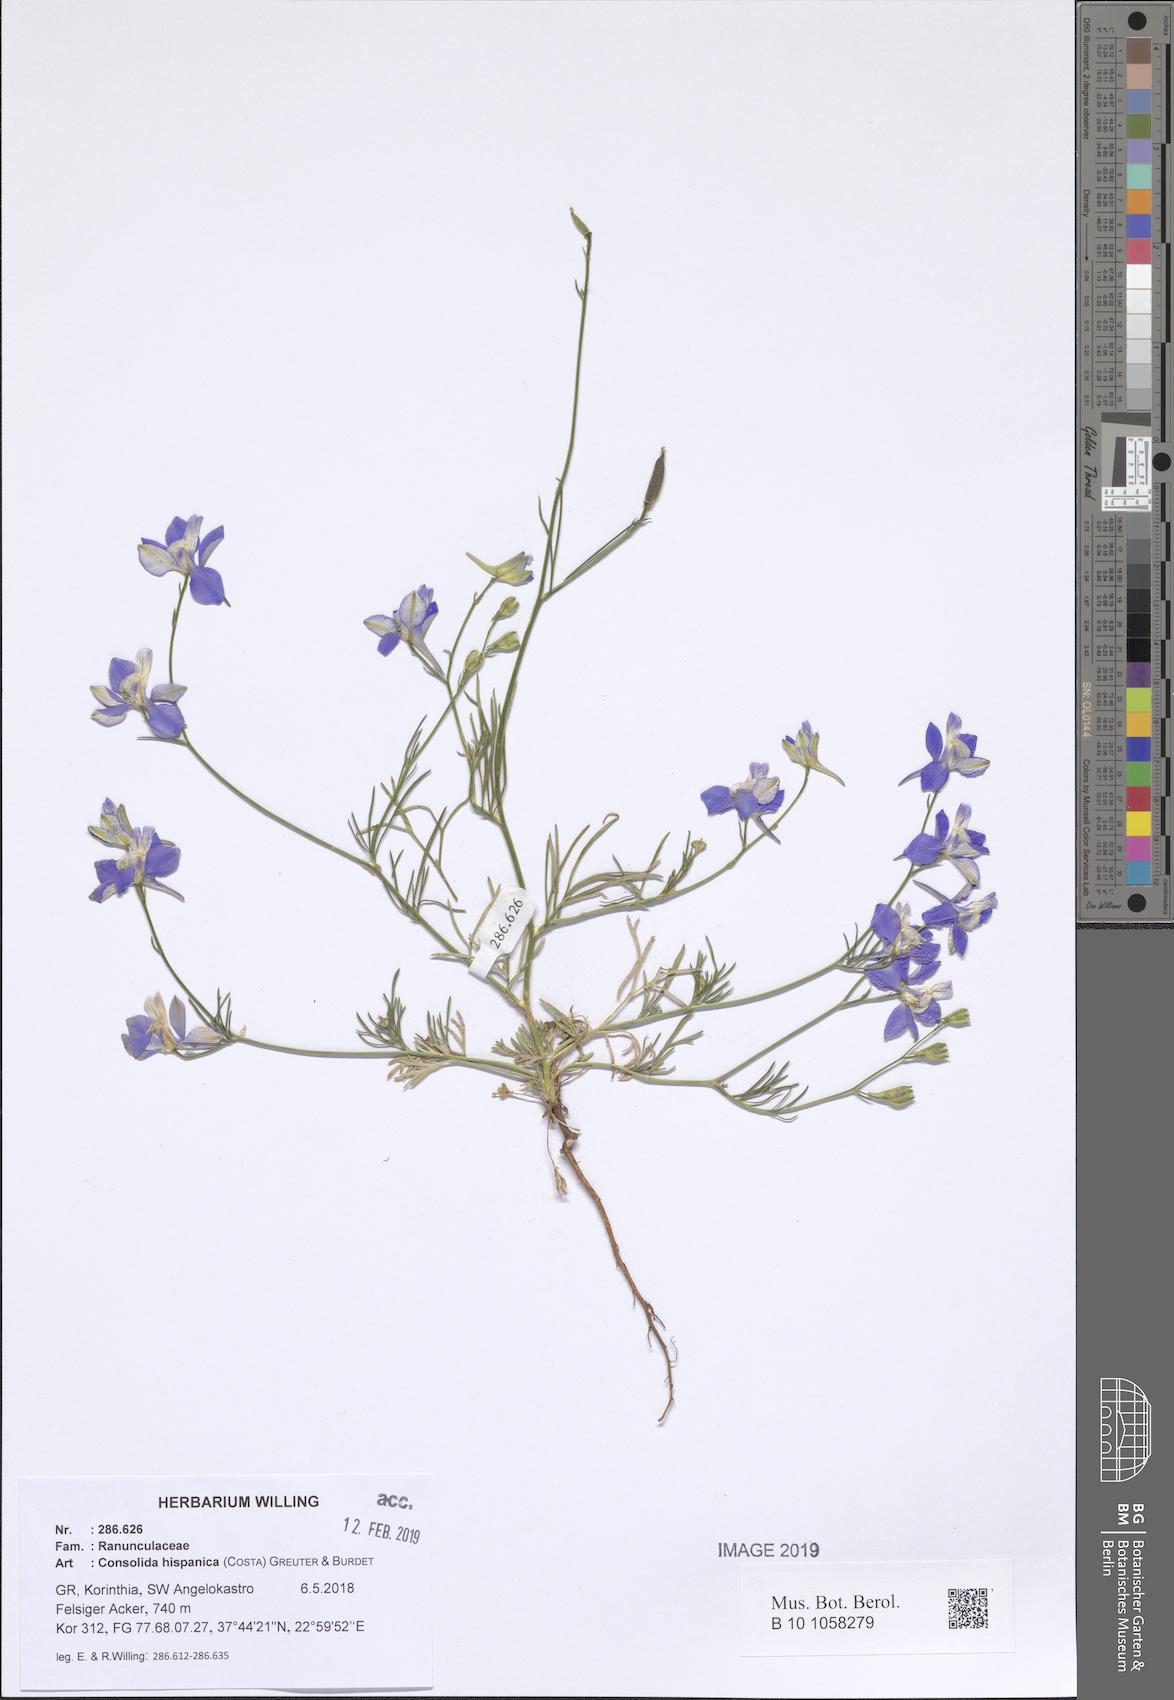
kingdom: Plantae
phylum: Tracheophyta
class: Magnoliopsida
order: Ranunculales
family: Ranunculaceae
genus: Delphinium
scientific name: Delphinium hispanicum
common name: Oriental knight's-spur
